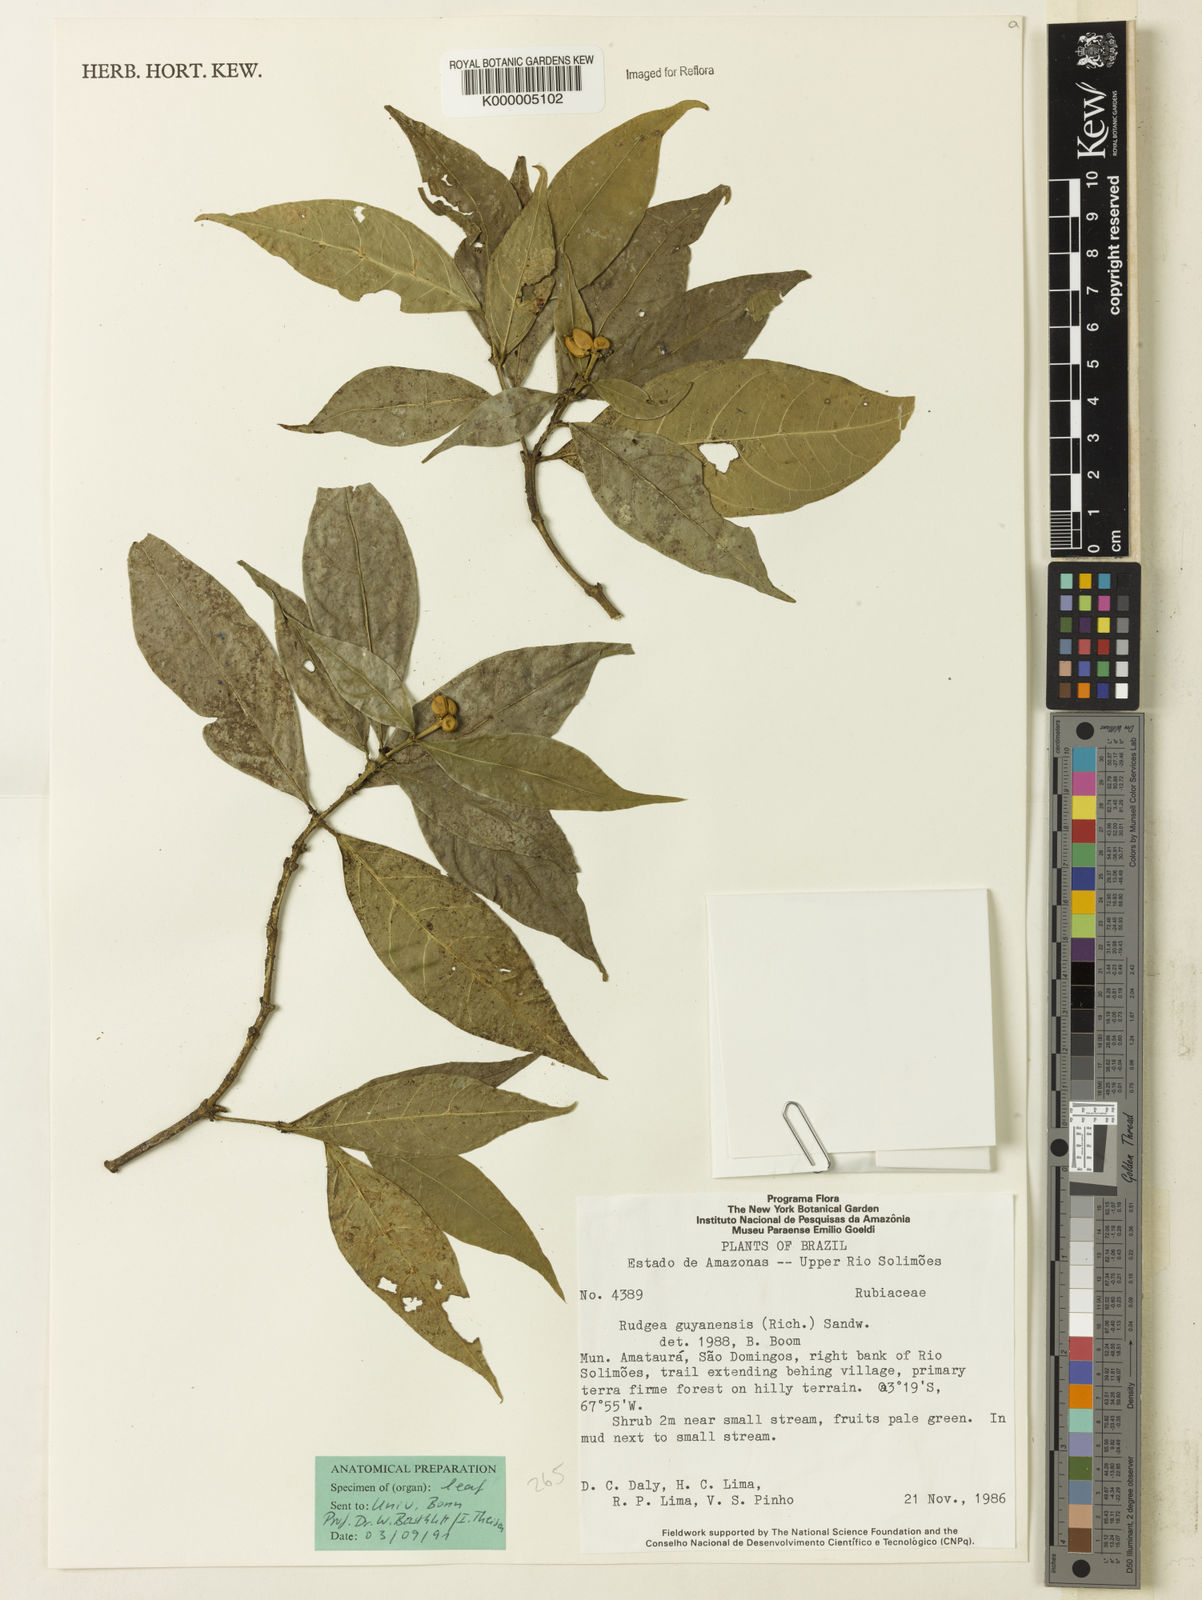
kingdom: Plantae
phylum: Tracheophyta
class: Magnoliopsida
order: Gentianales
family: Rubiaceae
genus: Rudgea
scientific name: Rudgea guianensis
